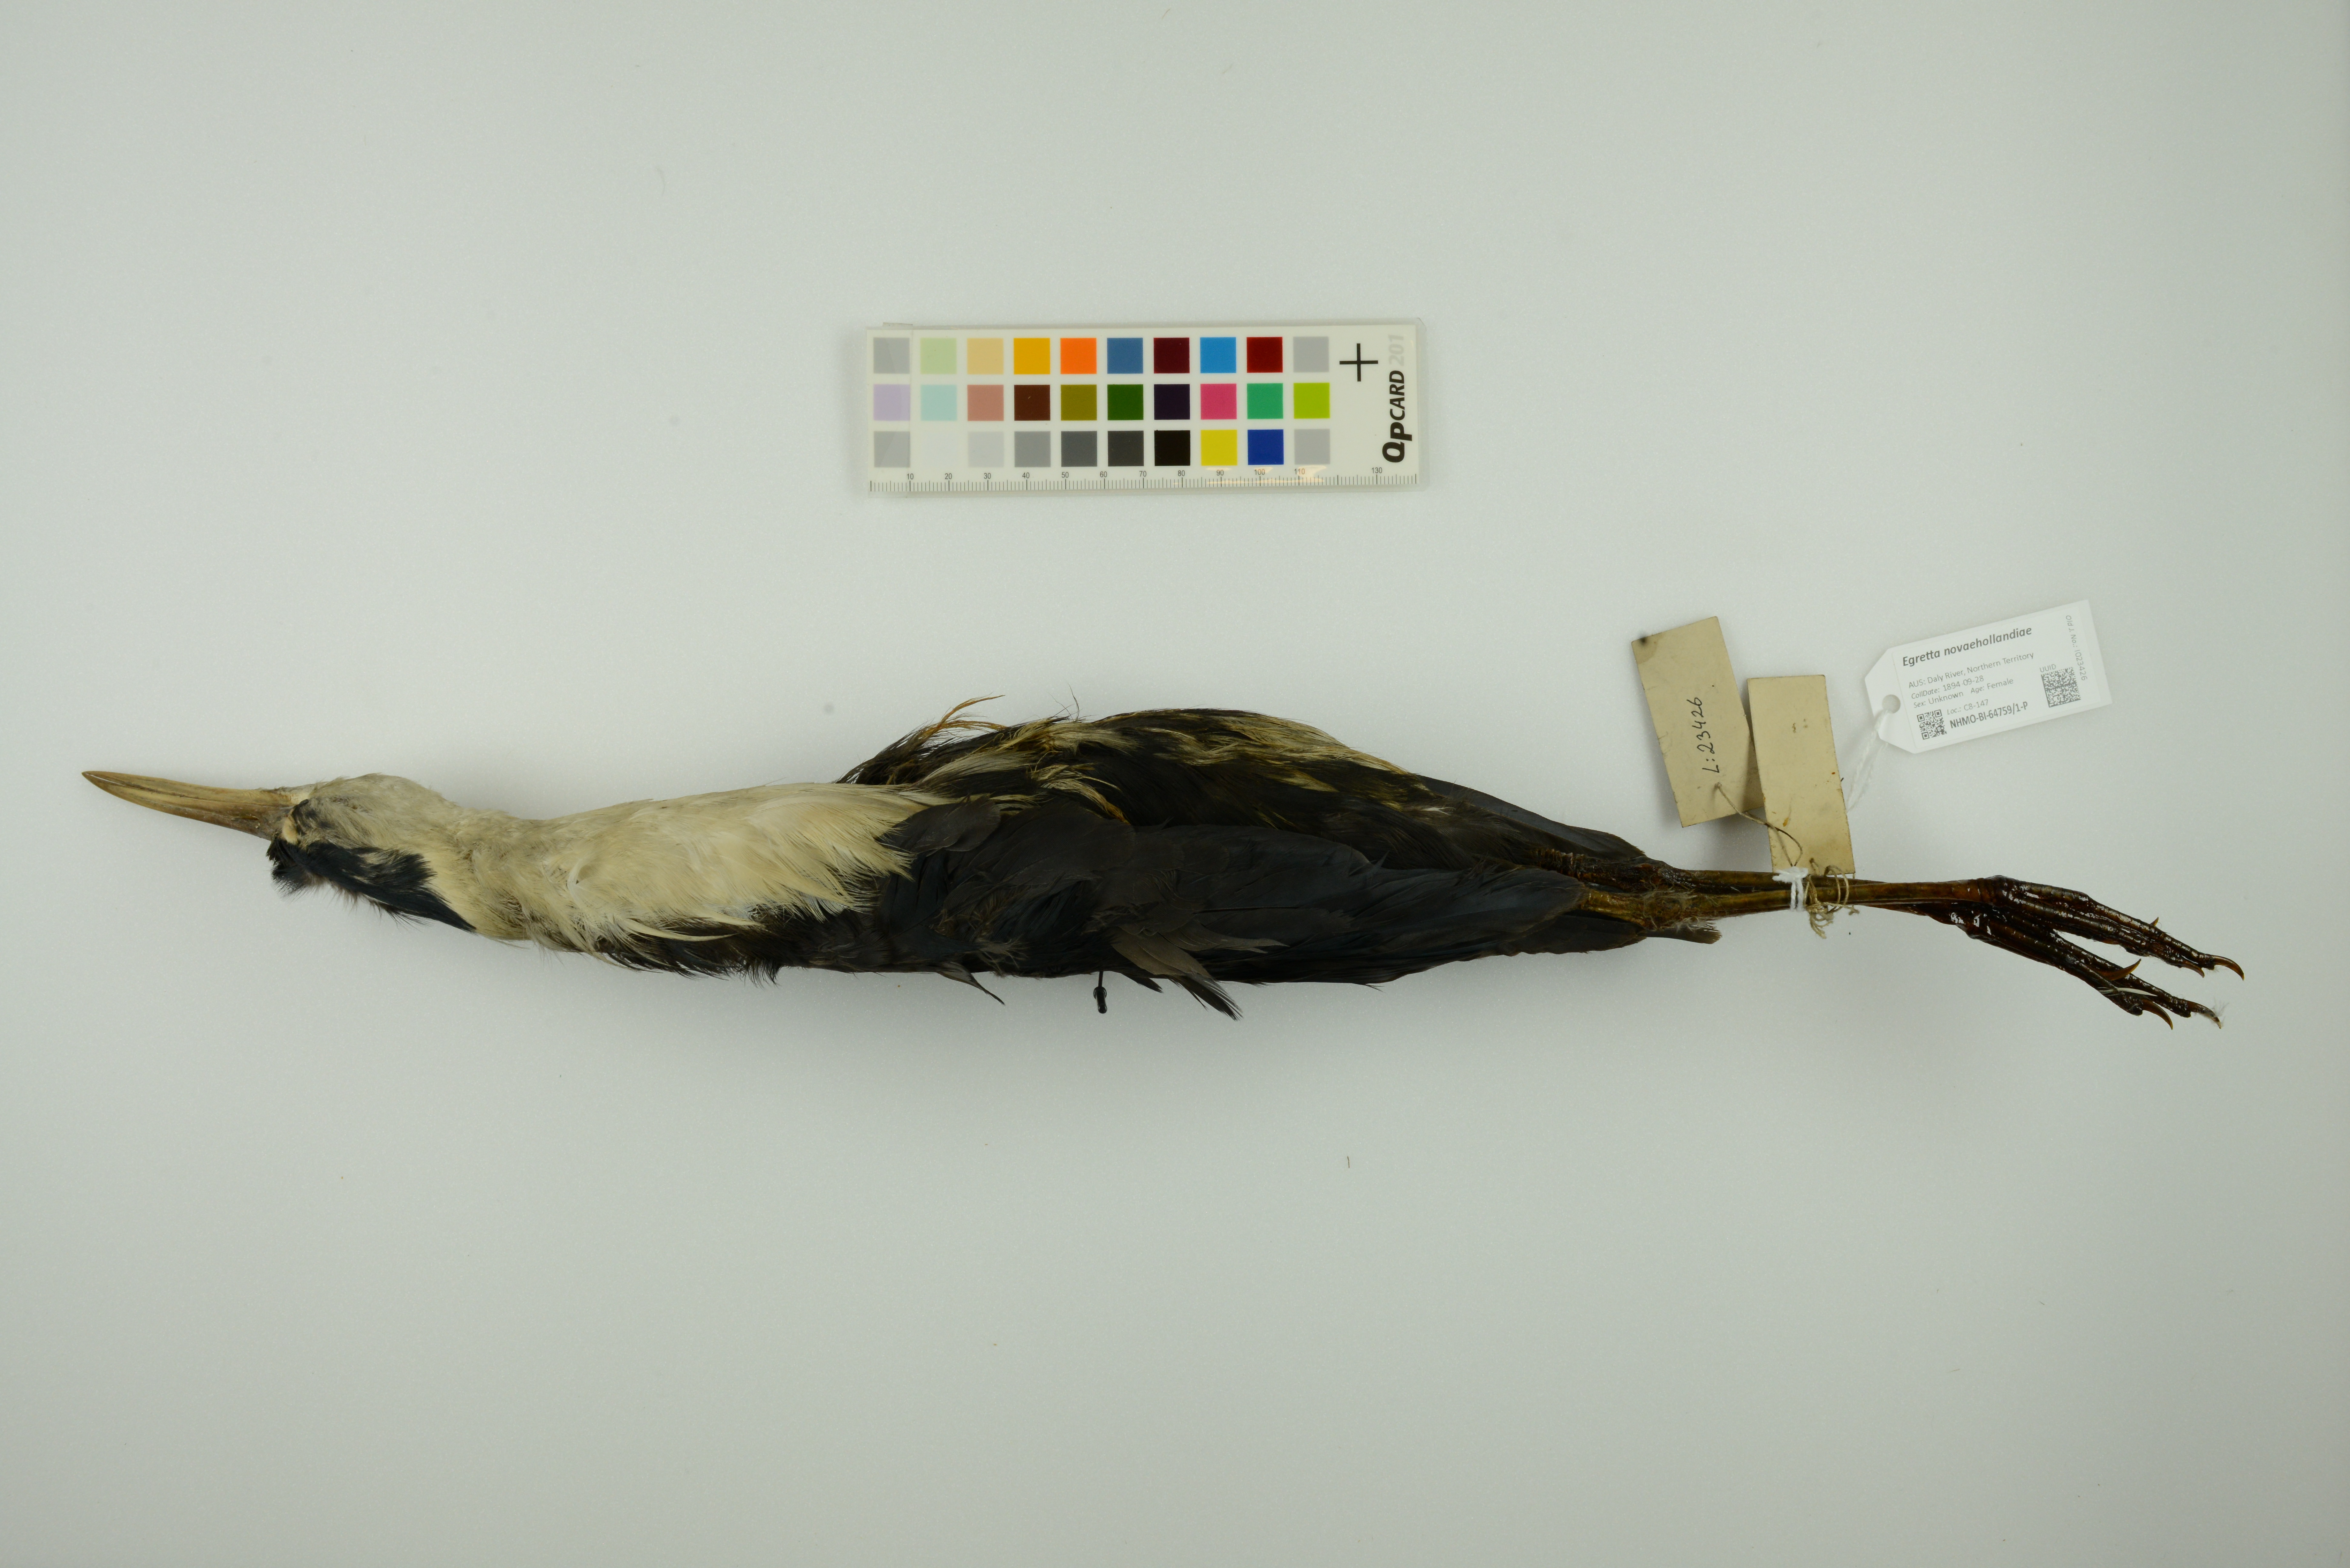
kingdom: Animalia
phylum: Chordata
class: Aves
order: Pelecaniformes
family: Ardeidae
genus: Egretta
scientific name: Egretta novaehollandiae
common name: White-faced heron
